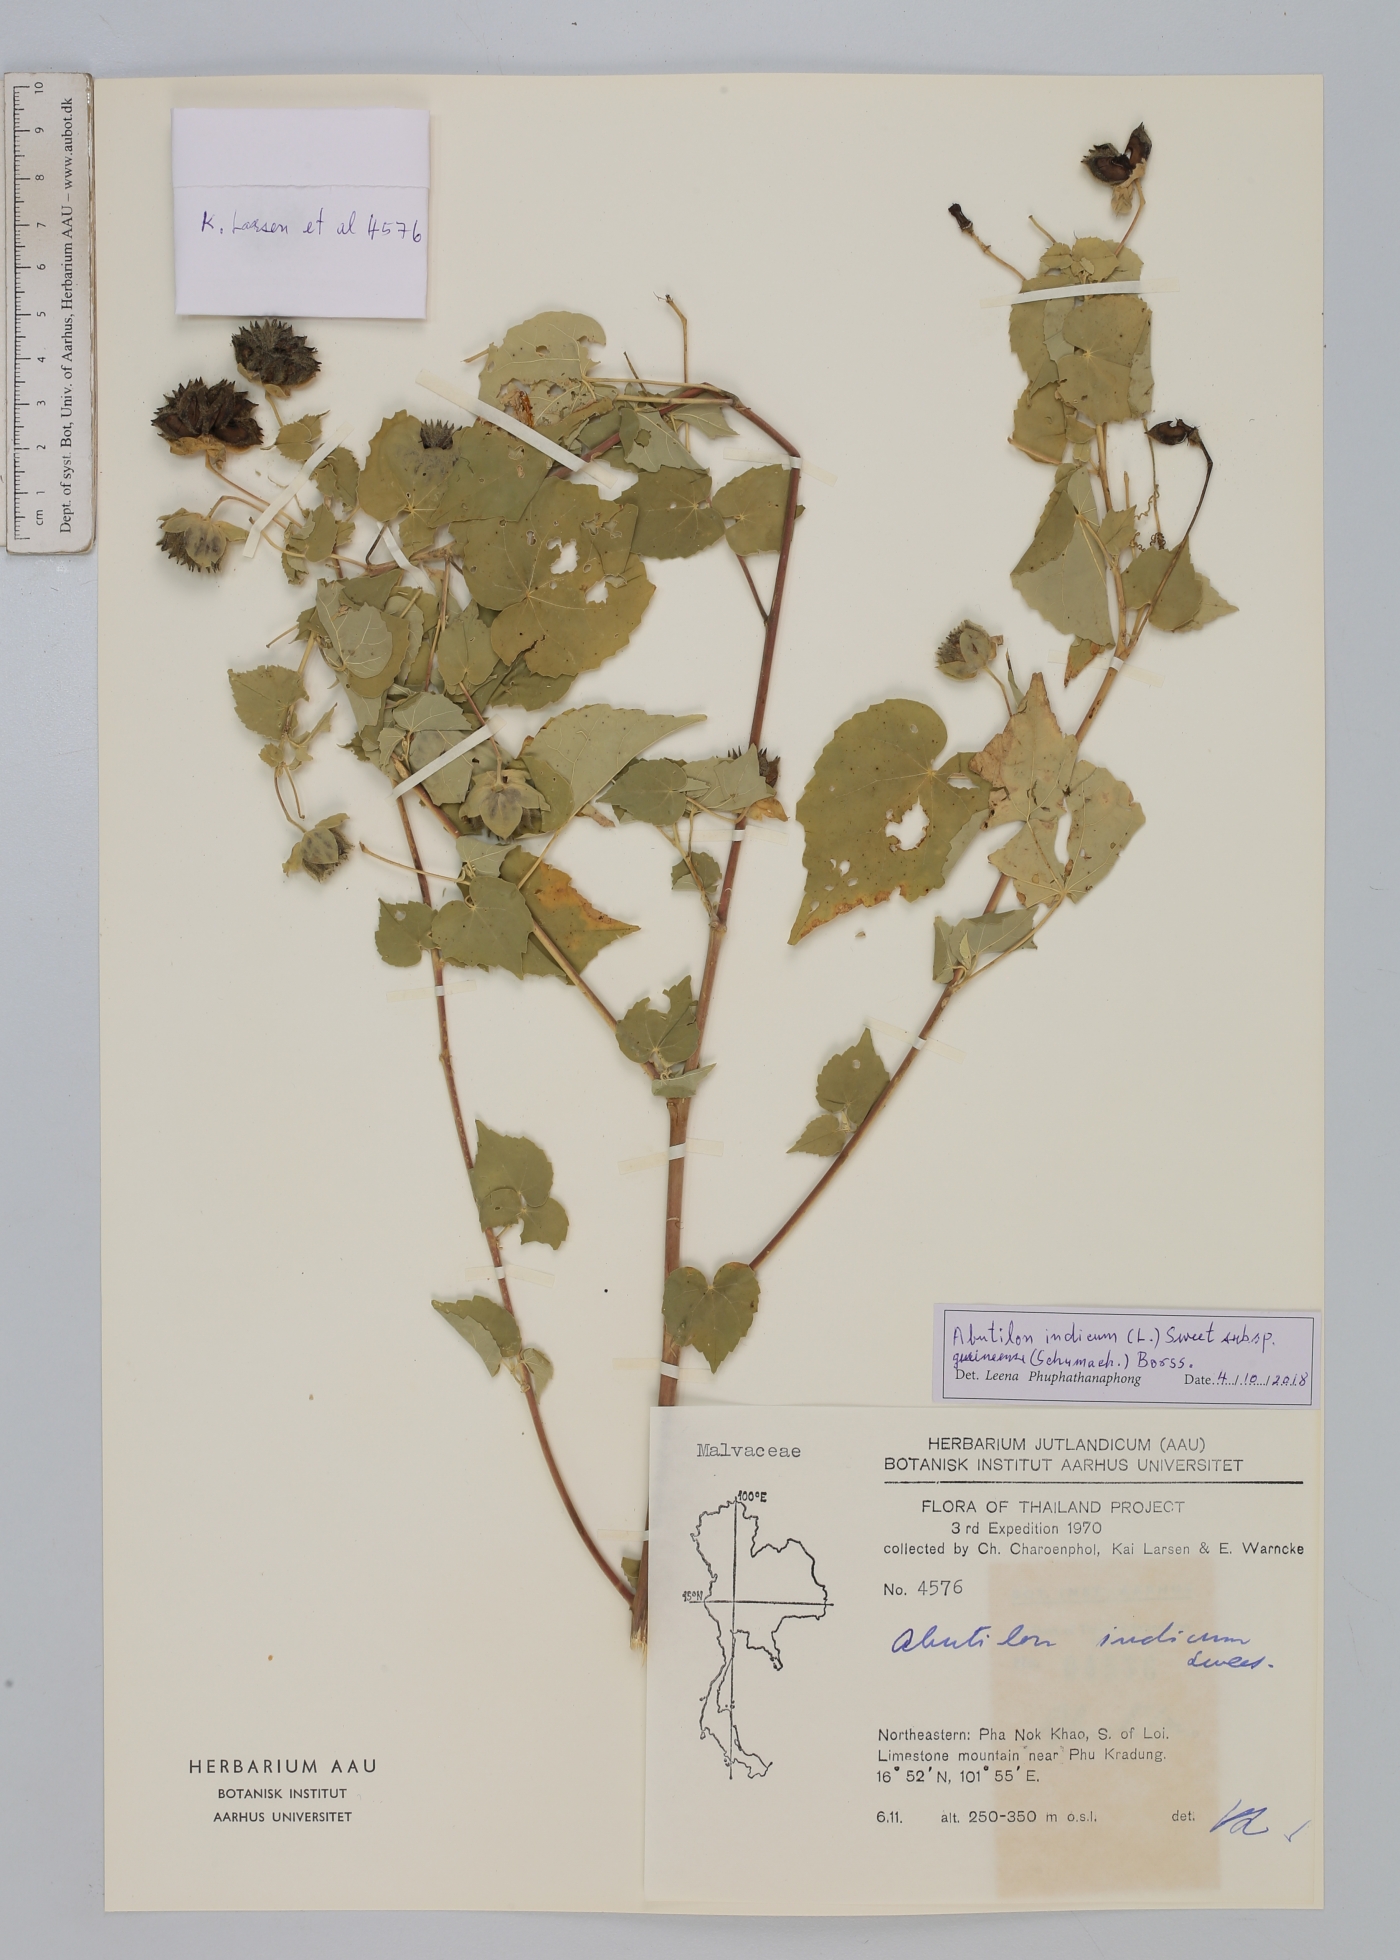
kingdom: Plantae
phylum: Tracheophyta
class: Magnoliopsida
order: Malvales
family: Malvaceae
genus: Abutilon
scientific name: Abutilon guineense
